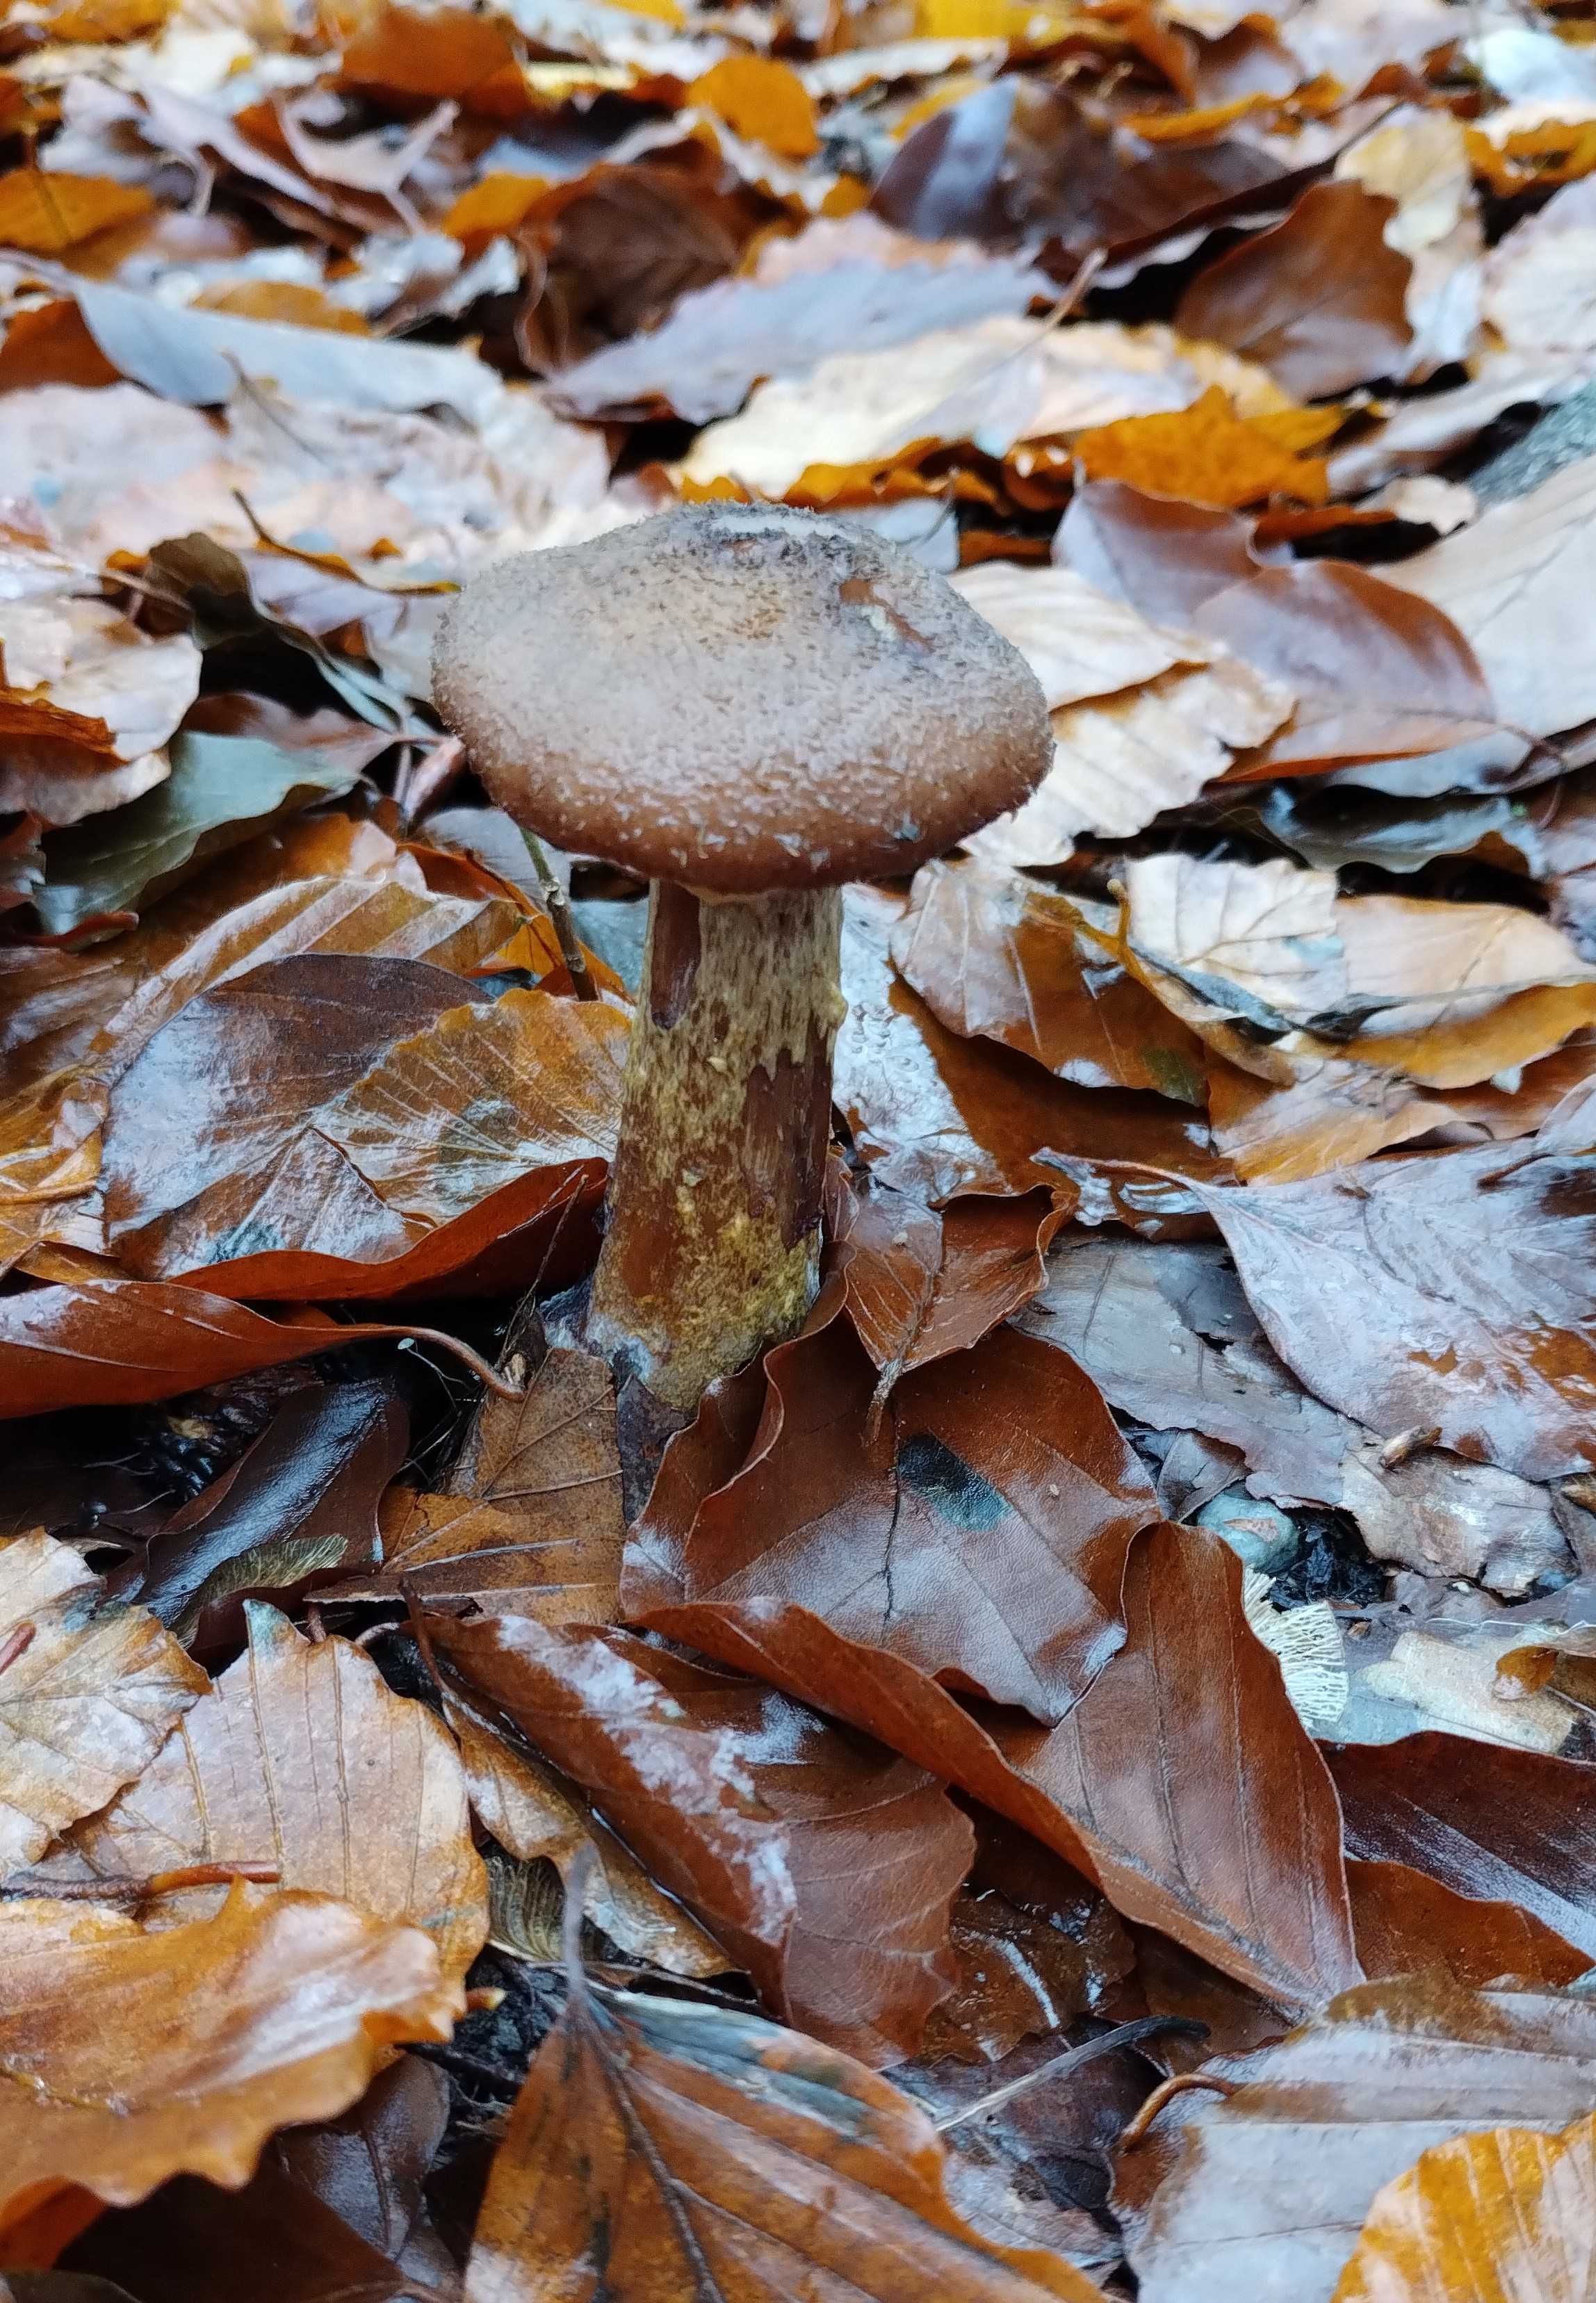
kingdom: Fungi
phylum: Basidiomycota
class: Agaricomycetes
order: Agaricales
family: Physalacriaceae
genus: Armillaria
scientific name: Armillaria lutea
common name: køllestokket honningsvamp
